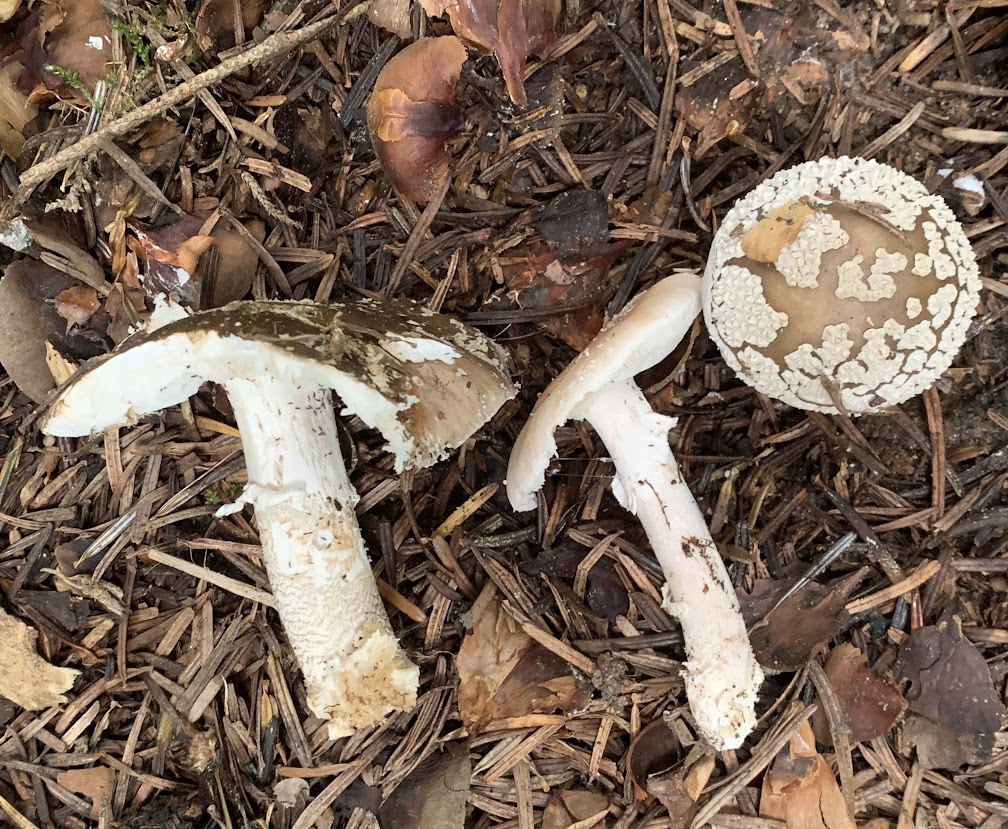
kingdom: Fungi
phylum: Basidiomycota
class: Agaricomycetes
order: Agaricales
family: Amanitaceae
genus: Amanita
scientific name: Amanita
